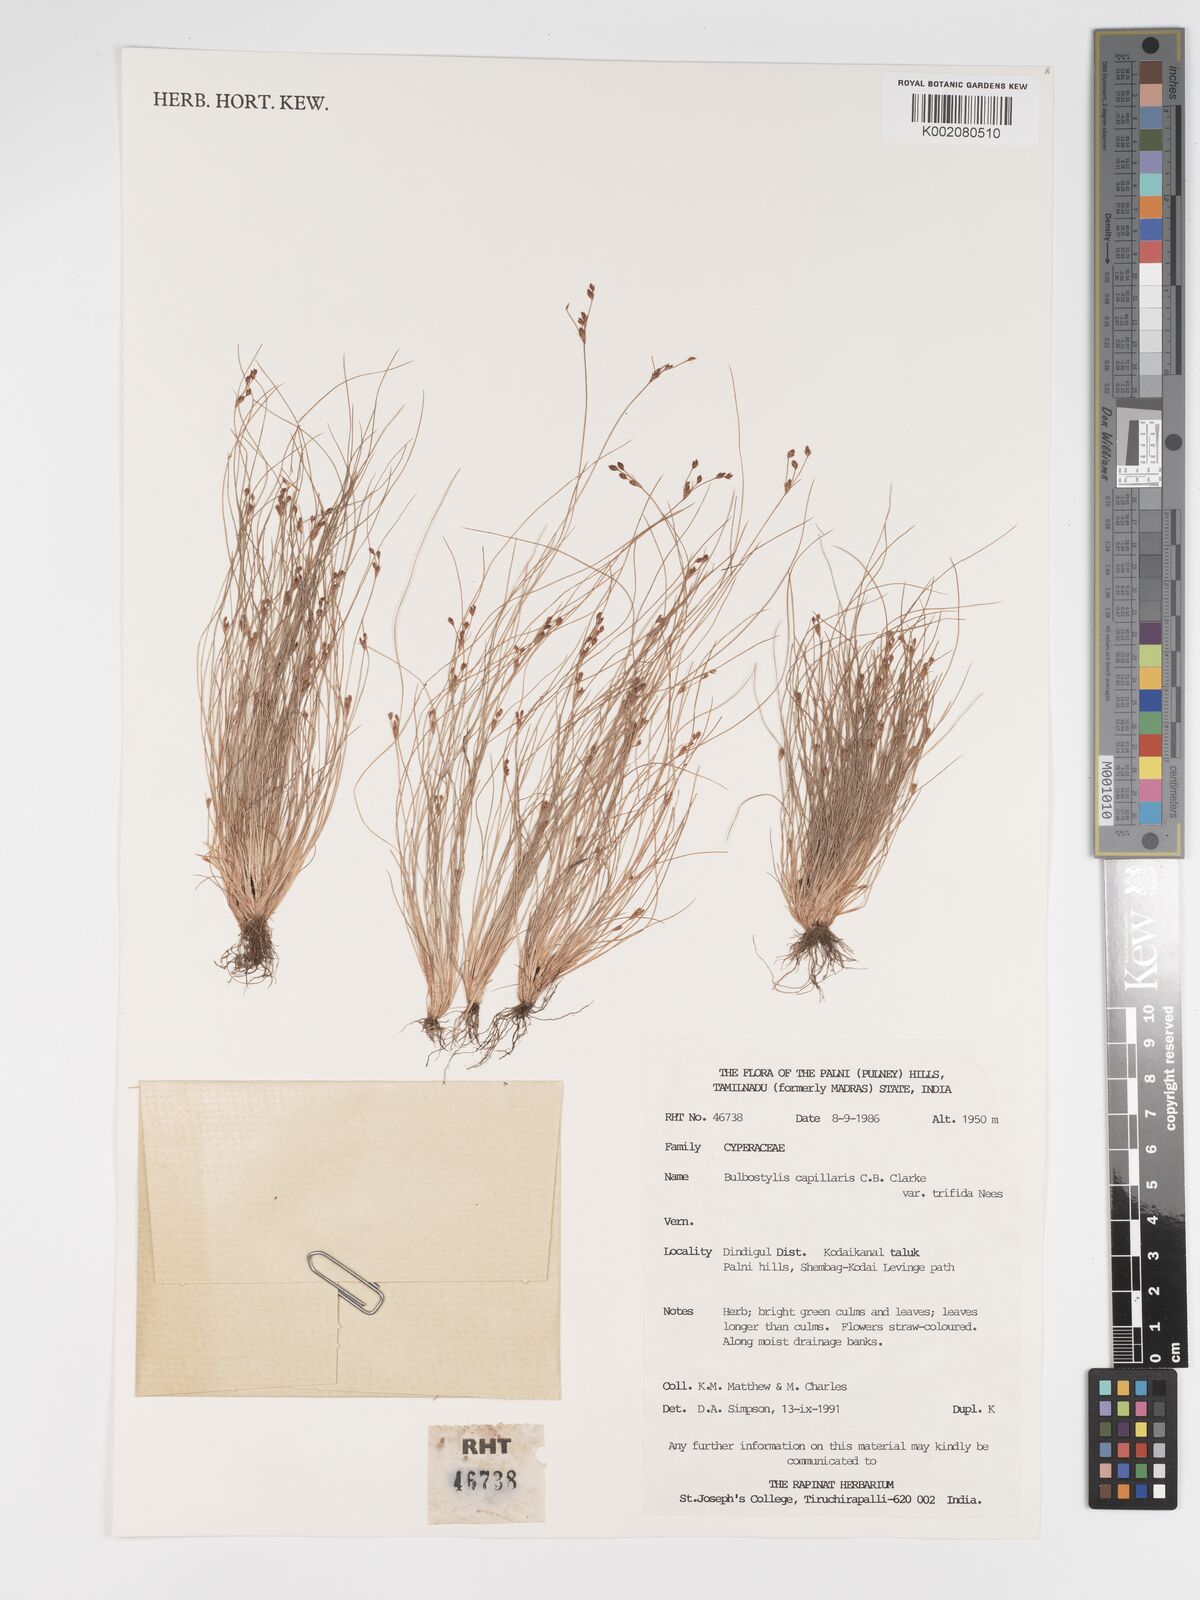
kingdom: Plantae
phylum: Tracheophyta
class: Liliopsida
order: Poales
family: Cyperaceae
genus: Bulbostylis
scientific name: Bulbostylis capillaris
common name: Densetuft hairsedge
